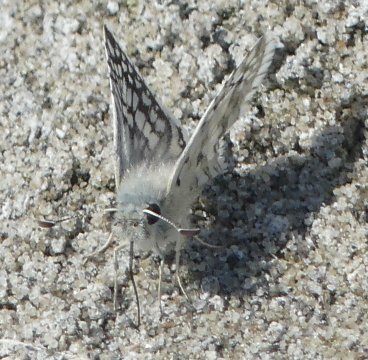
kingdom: Animalia
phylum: Arthropoda
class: Insecta
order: Lepidoptera
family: Hesperiidae
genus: Pyrgus
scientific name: Pyrgus communis
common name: Common Checkered-Skipper
